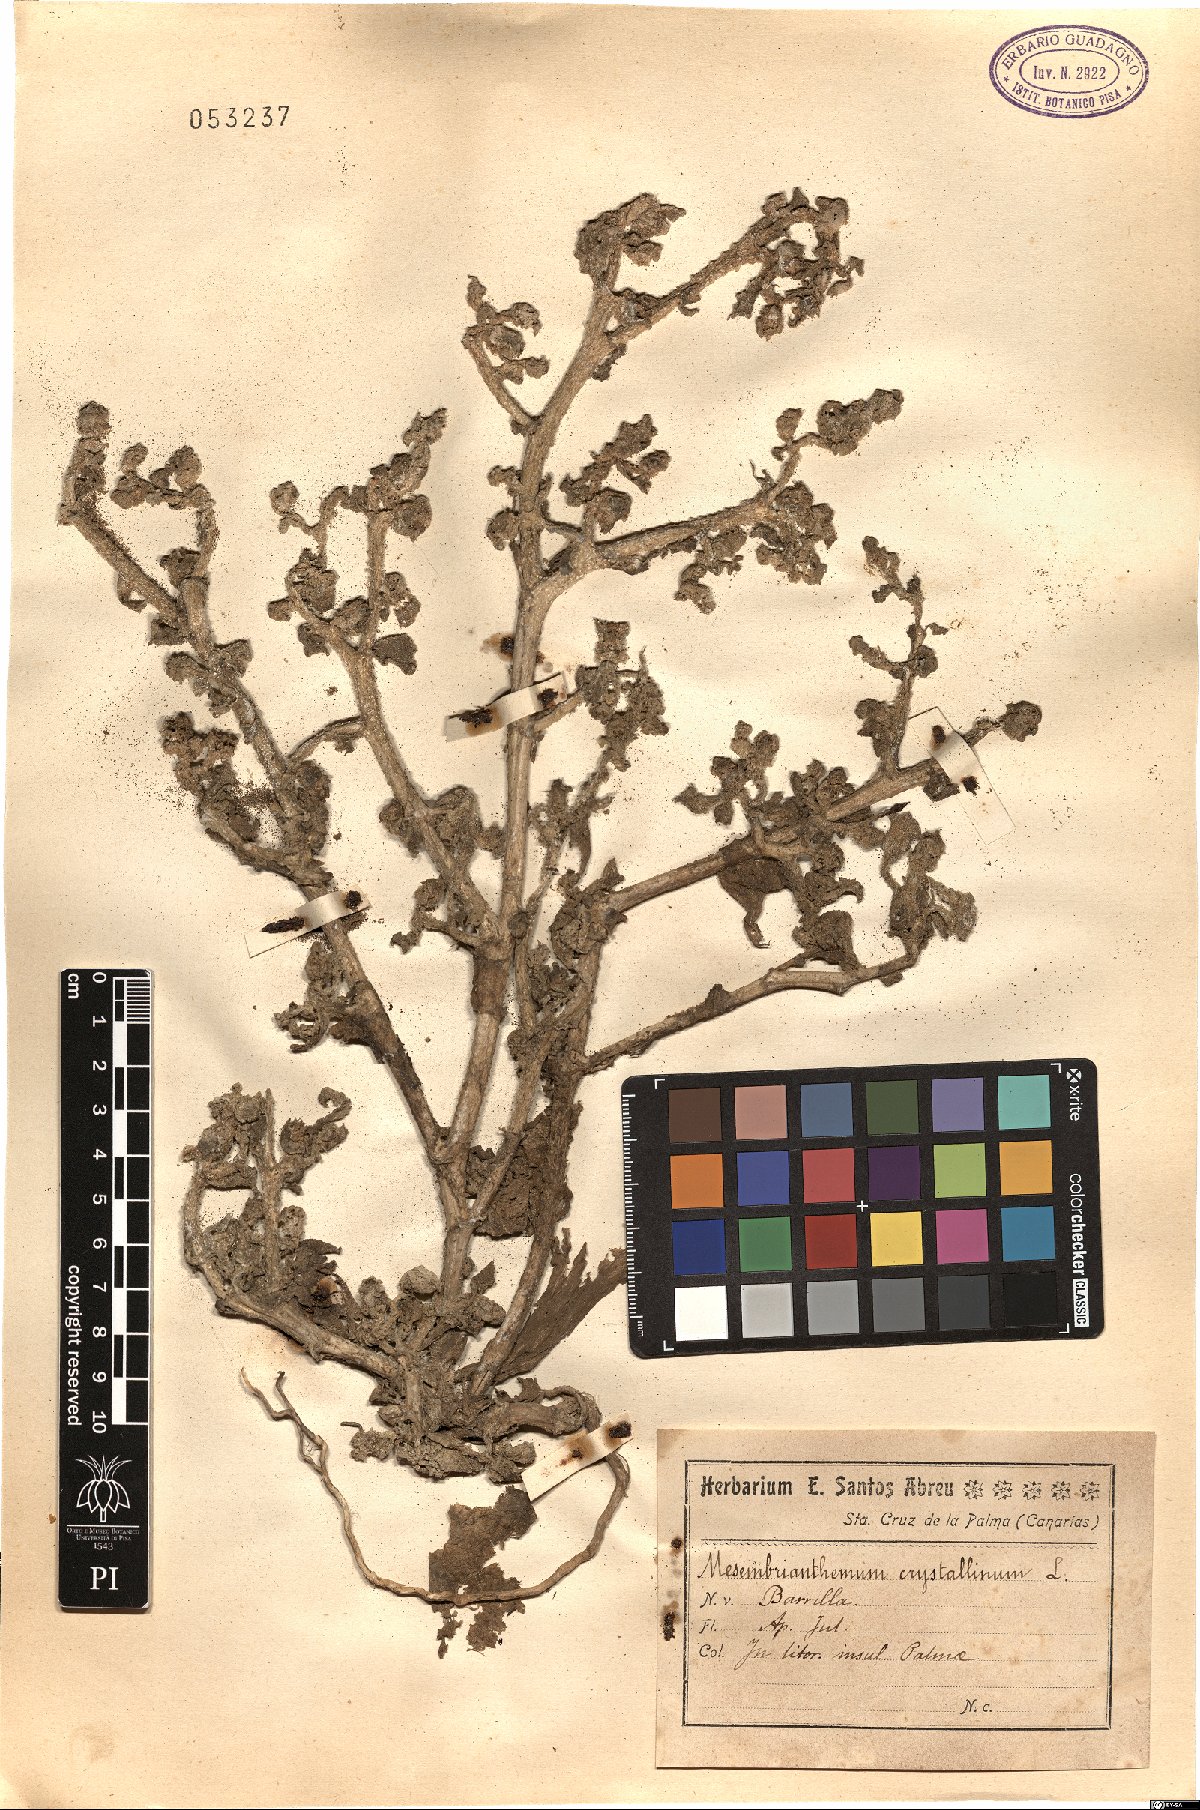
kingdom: Plantae
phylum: Tracheophyta
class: Magnoliopsida
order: Caryophyllales
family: Aizoaceae
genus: Mesembryanthemum
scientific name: Mesembryanthemum crystallinum
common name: Common iceplant
